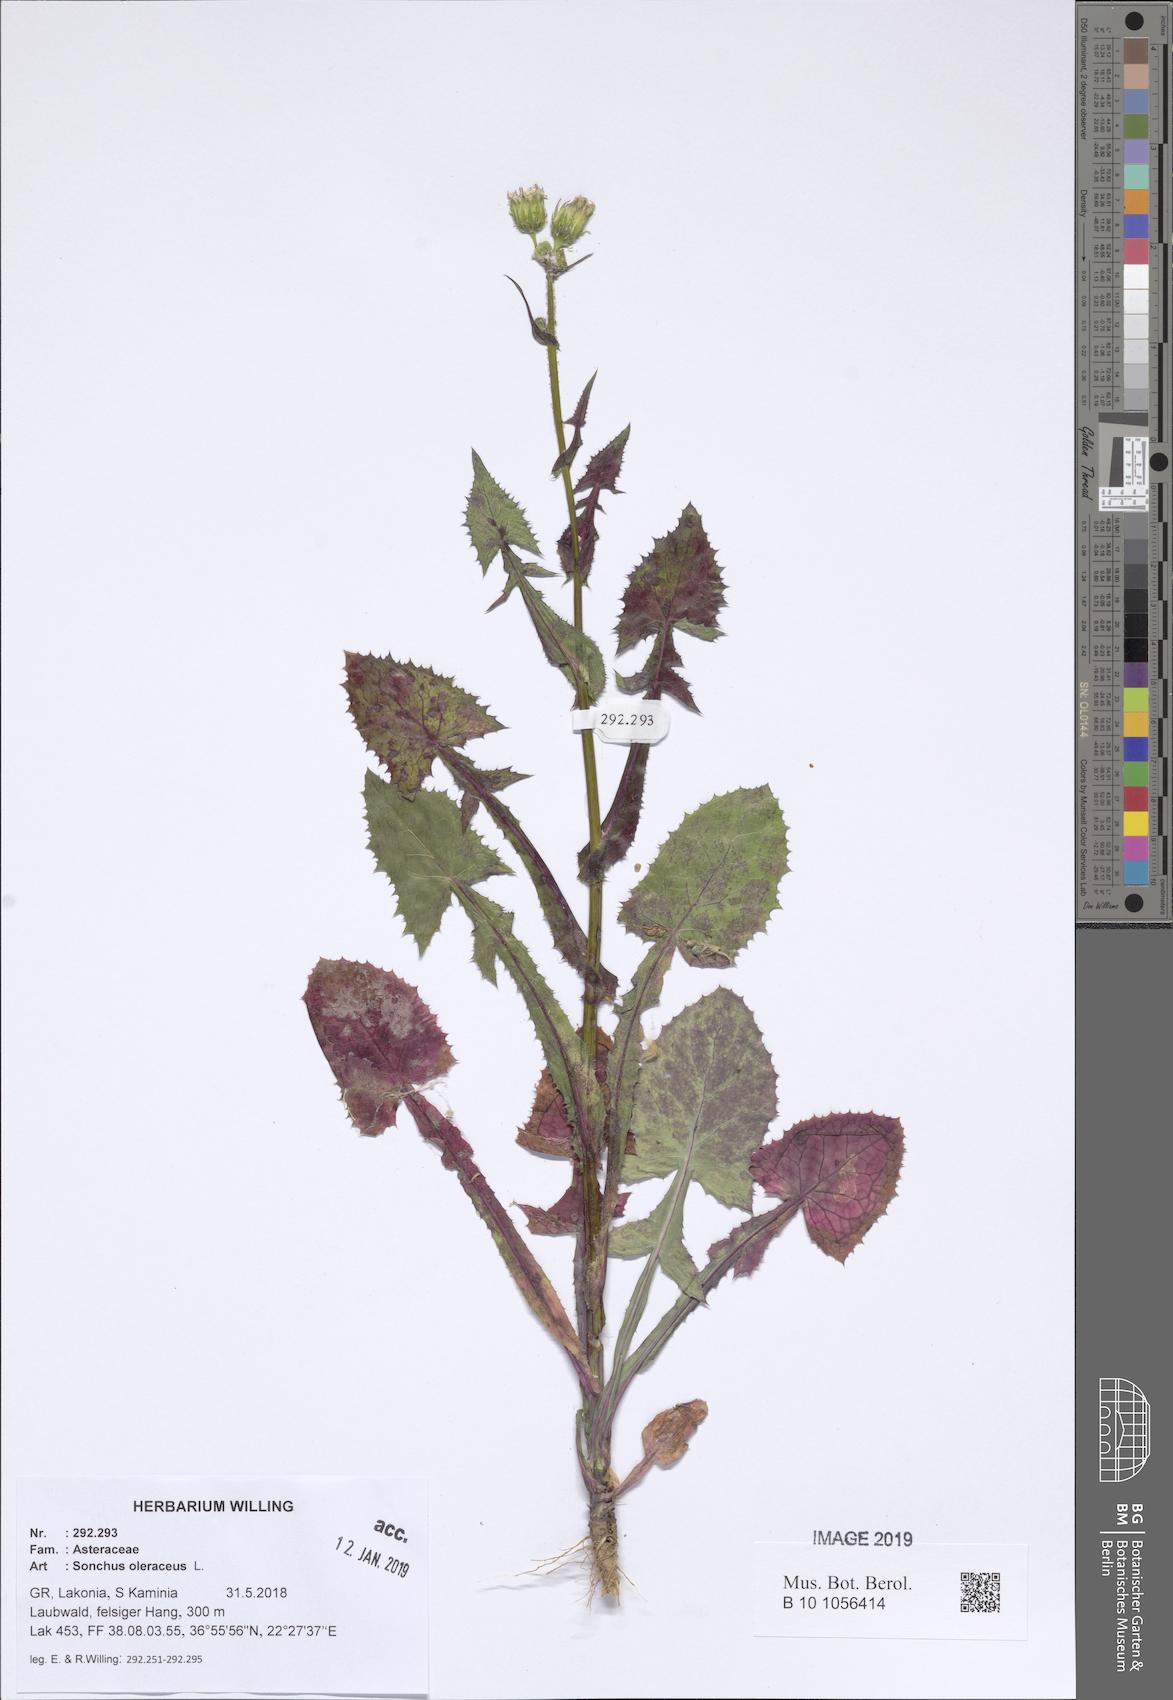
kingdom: Plantae
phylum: Tracheophyta
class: Magnoliopsida
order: Asterales
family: Asteraceae
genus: Sonchus
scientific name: Sonchus oleraceus
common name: Common sowthistle
